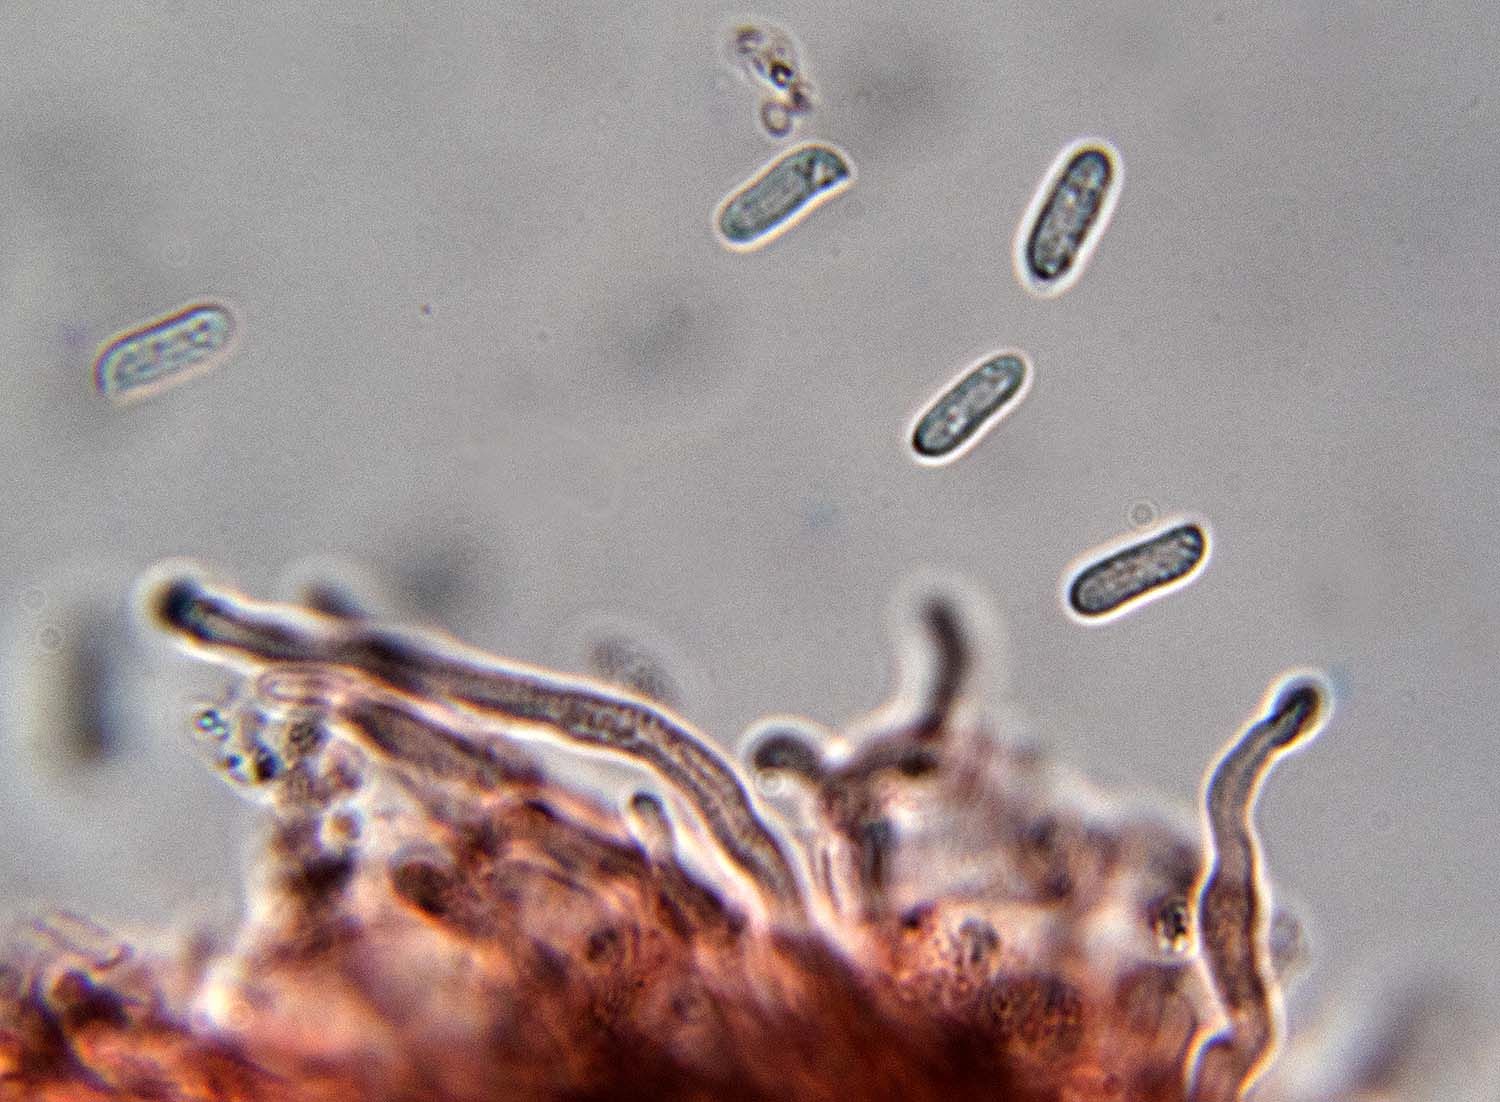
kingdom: Fungi
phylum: Basidiomycota
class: Agaricomycetes
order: Polyporales
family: Fomitopsidaceae
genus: Brunneoporus
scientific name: Brunneoporus kuzyanus
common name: brunlig sejporesvamp
